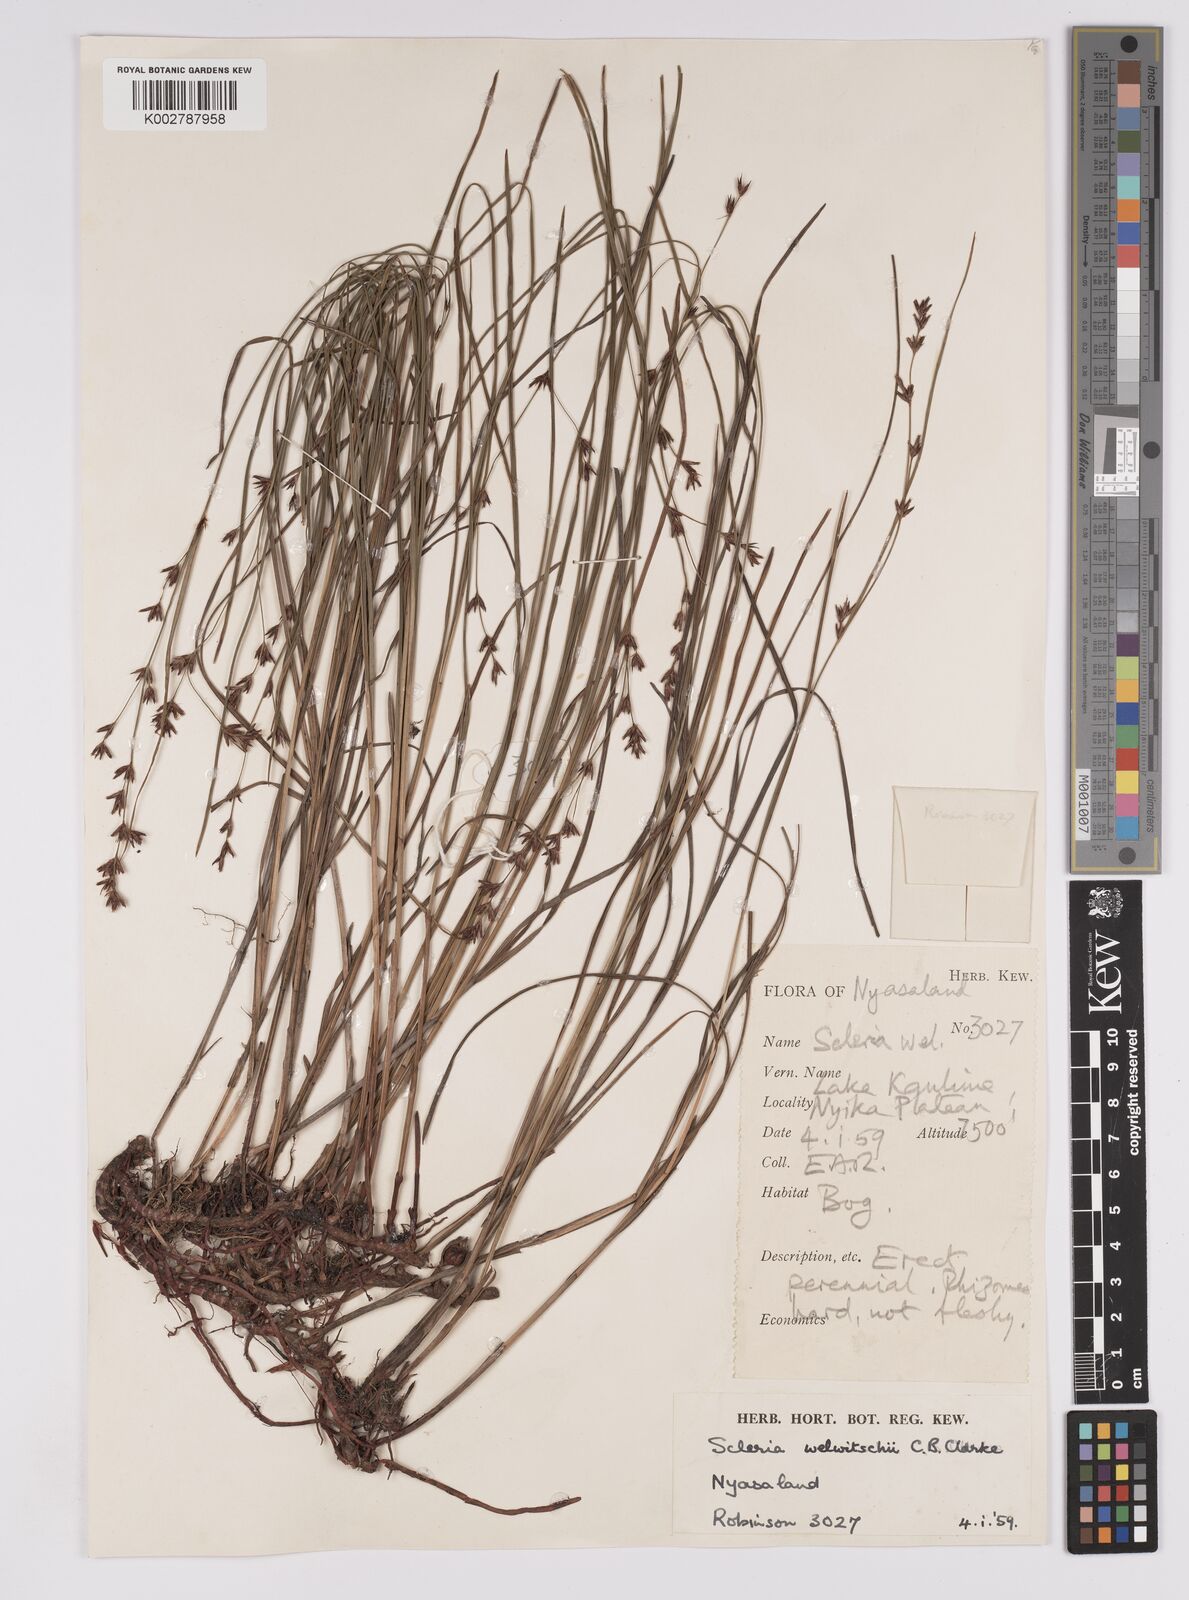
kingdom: Plantae
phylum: Tracheophyta
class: Liliopsida
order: Poales
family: Cyperaceae
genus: Scleria
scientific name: Scleria welwitschii
